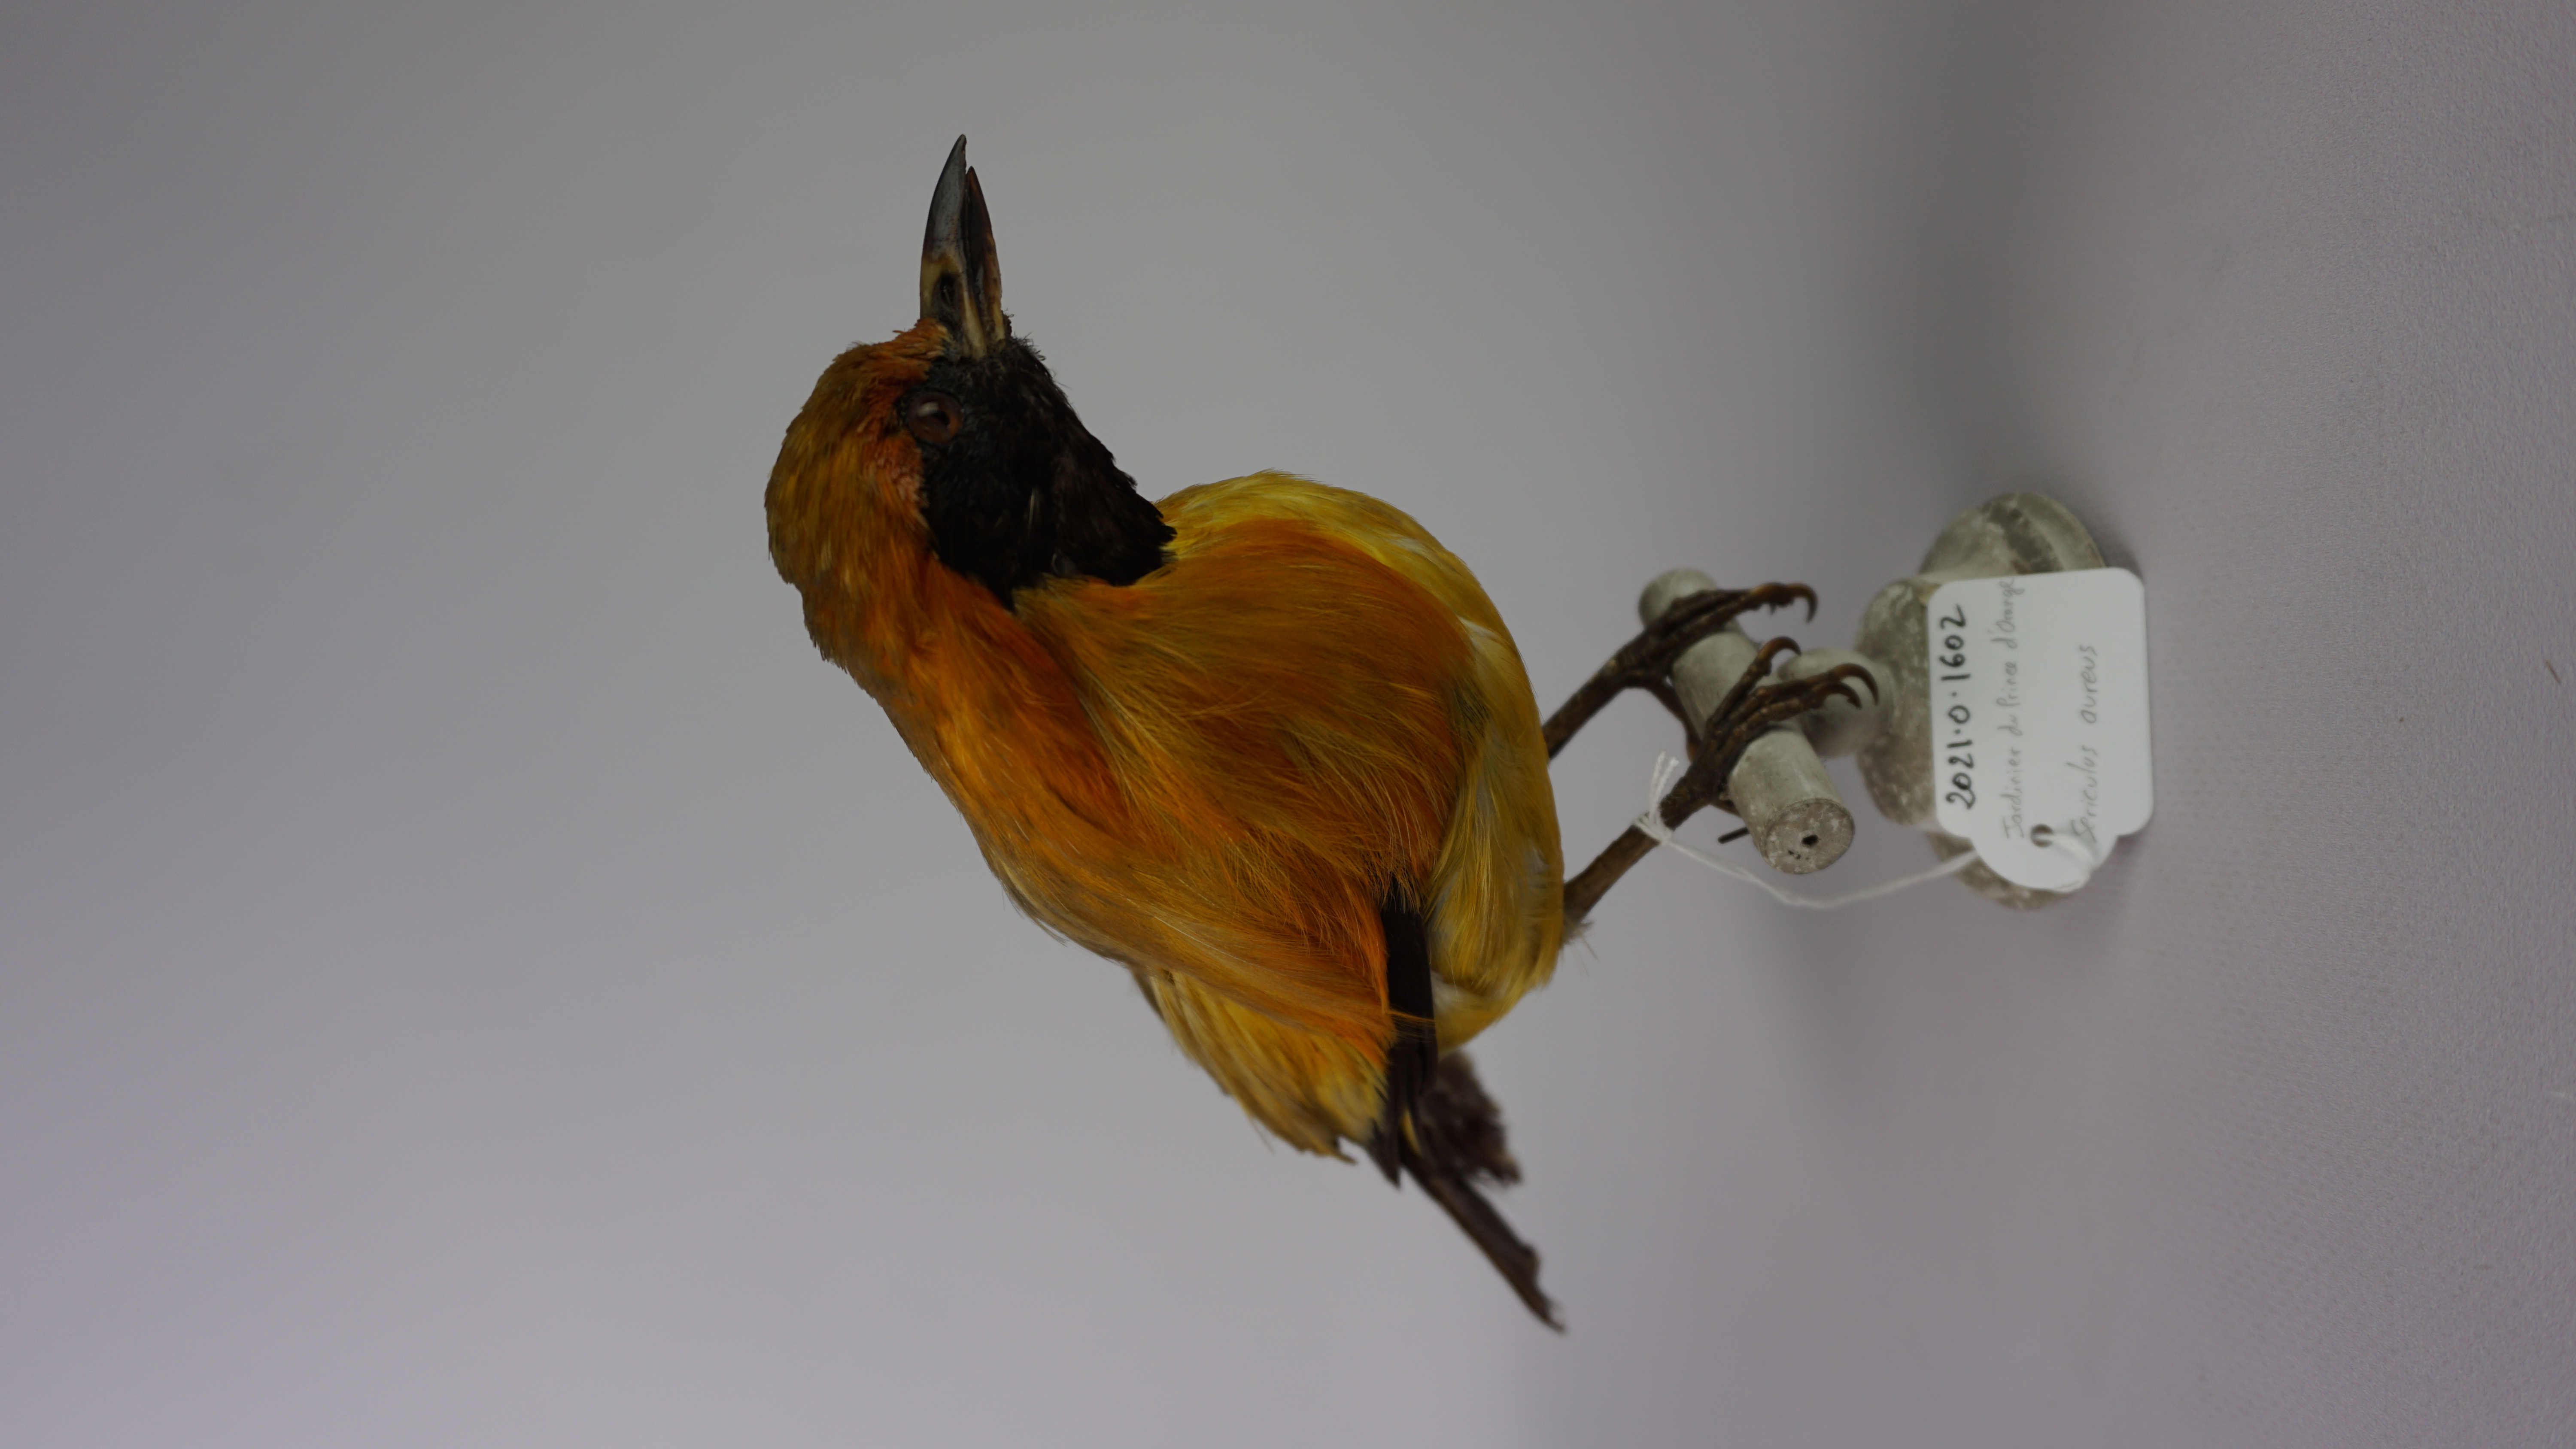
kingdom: Animalia
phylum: Chordata
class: Aves
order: Passeriformes
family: Ptilonorhynchidae
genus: Sericulus
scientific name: Sericulus aureus
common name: Masked bowerbird
